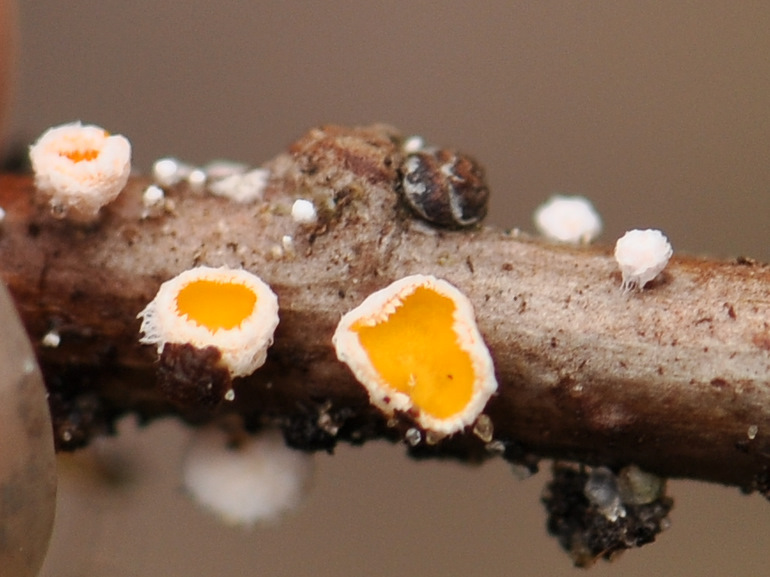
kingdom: Fungi
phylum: Ascomycota
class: Leotiomycetes
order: Helotiales
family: Lachnaceae
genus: Lachnellula
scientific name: Lachnellula subtilissima
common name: gran-frynseskive
